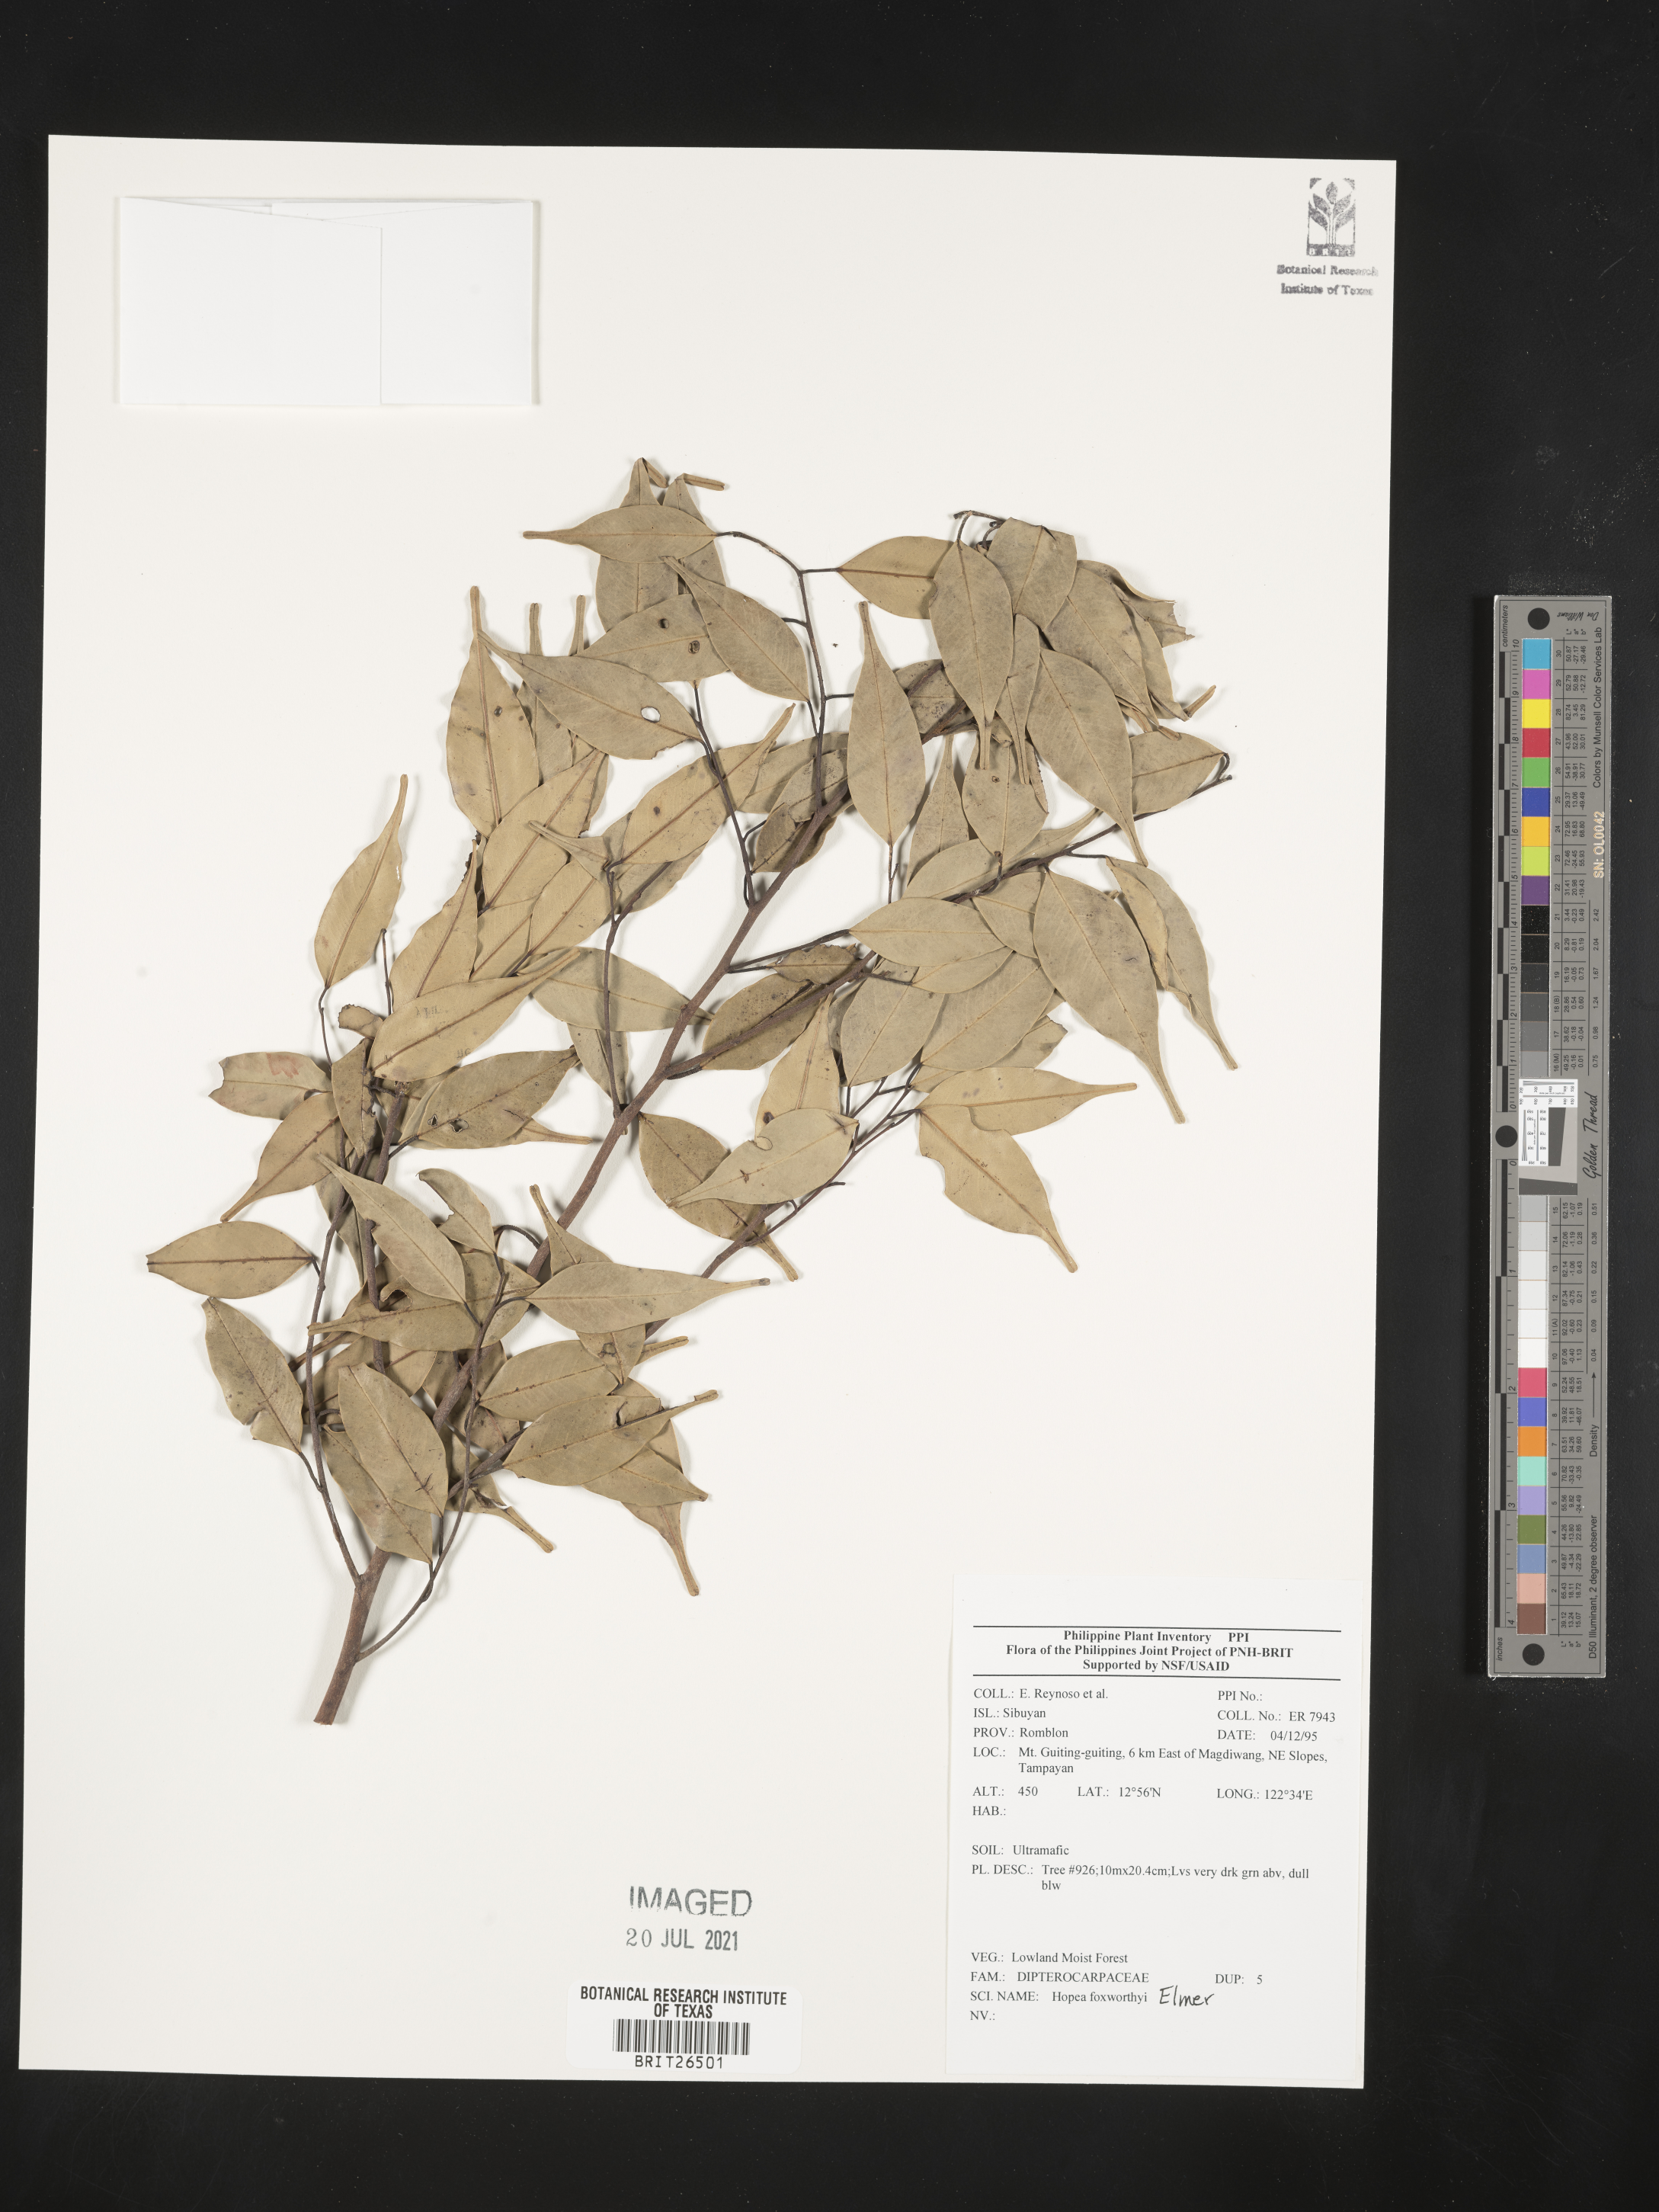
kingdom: Plantae
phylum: Tracheophyta
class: Magnoliopsida
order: Malvales
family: Dipterocarpaceae
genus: Hopea
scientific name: Hopea foxworthyi
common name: Dalingdingan
